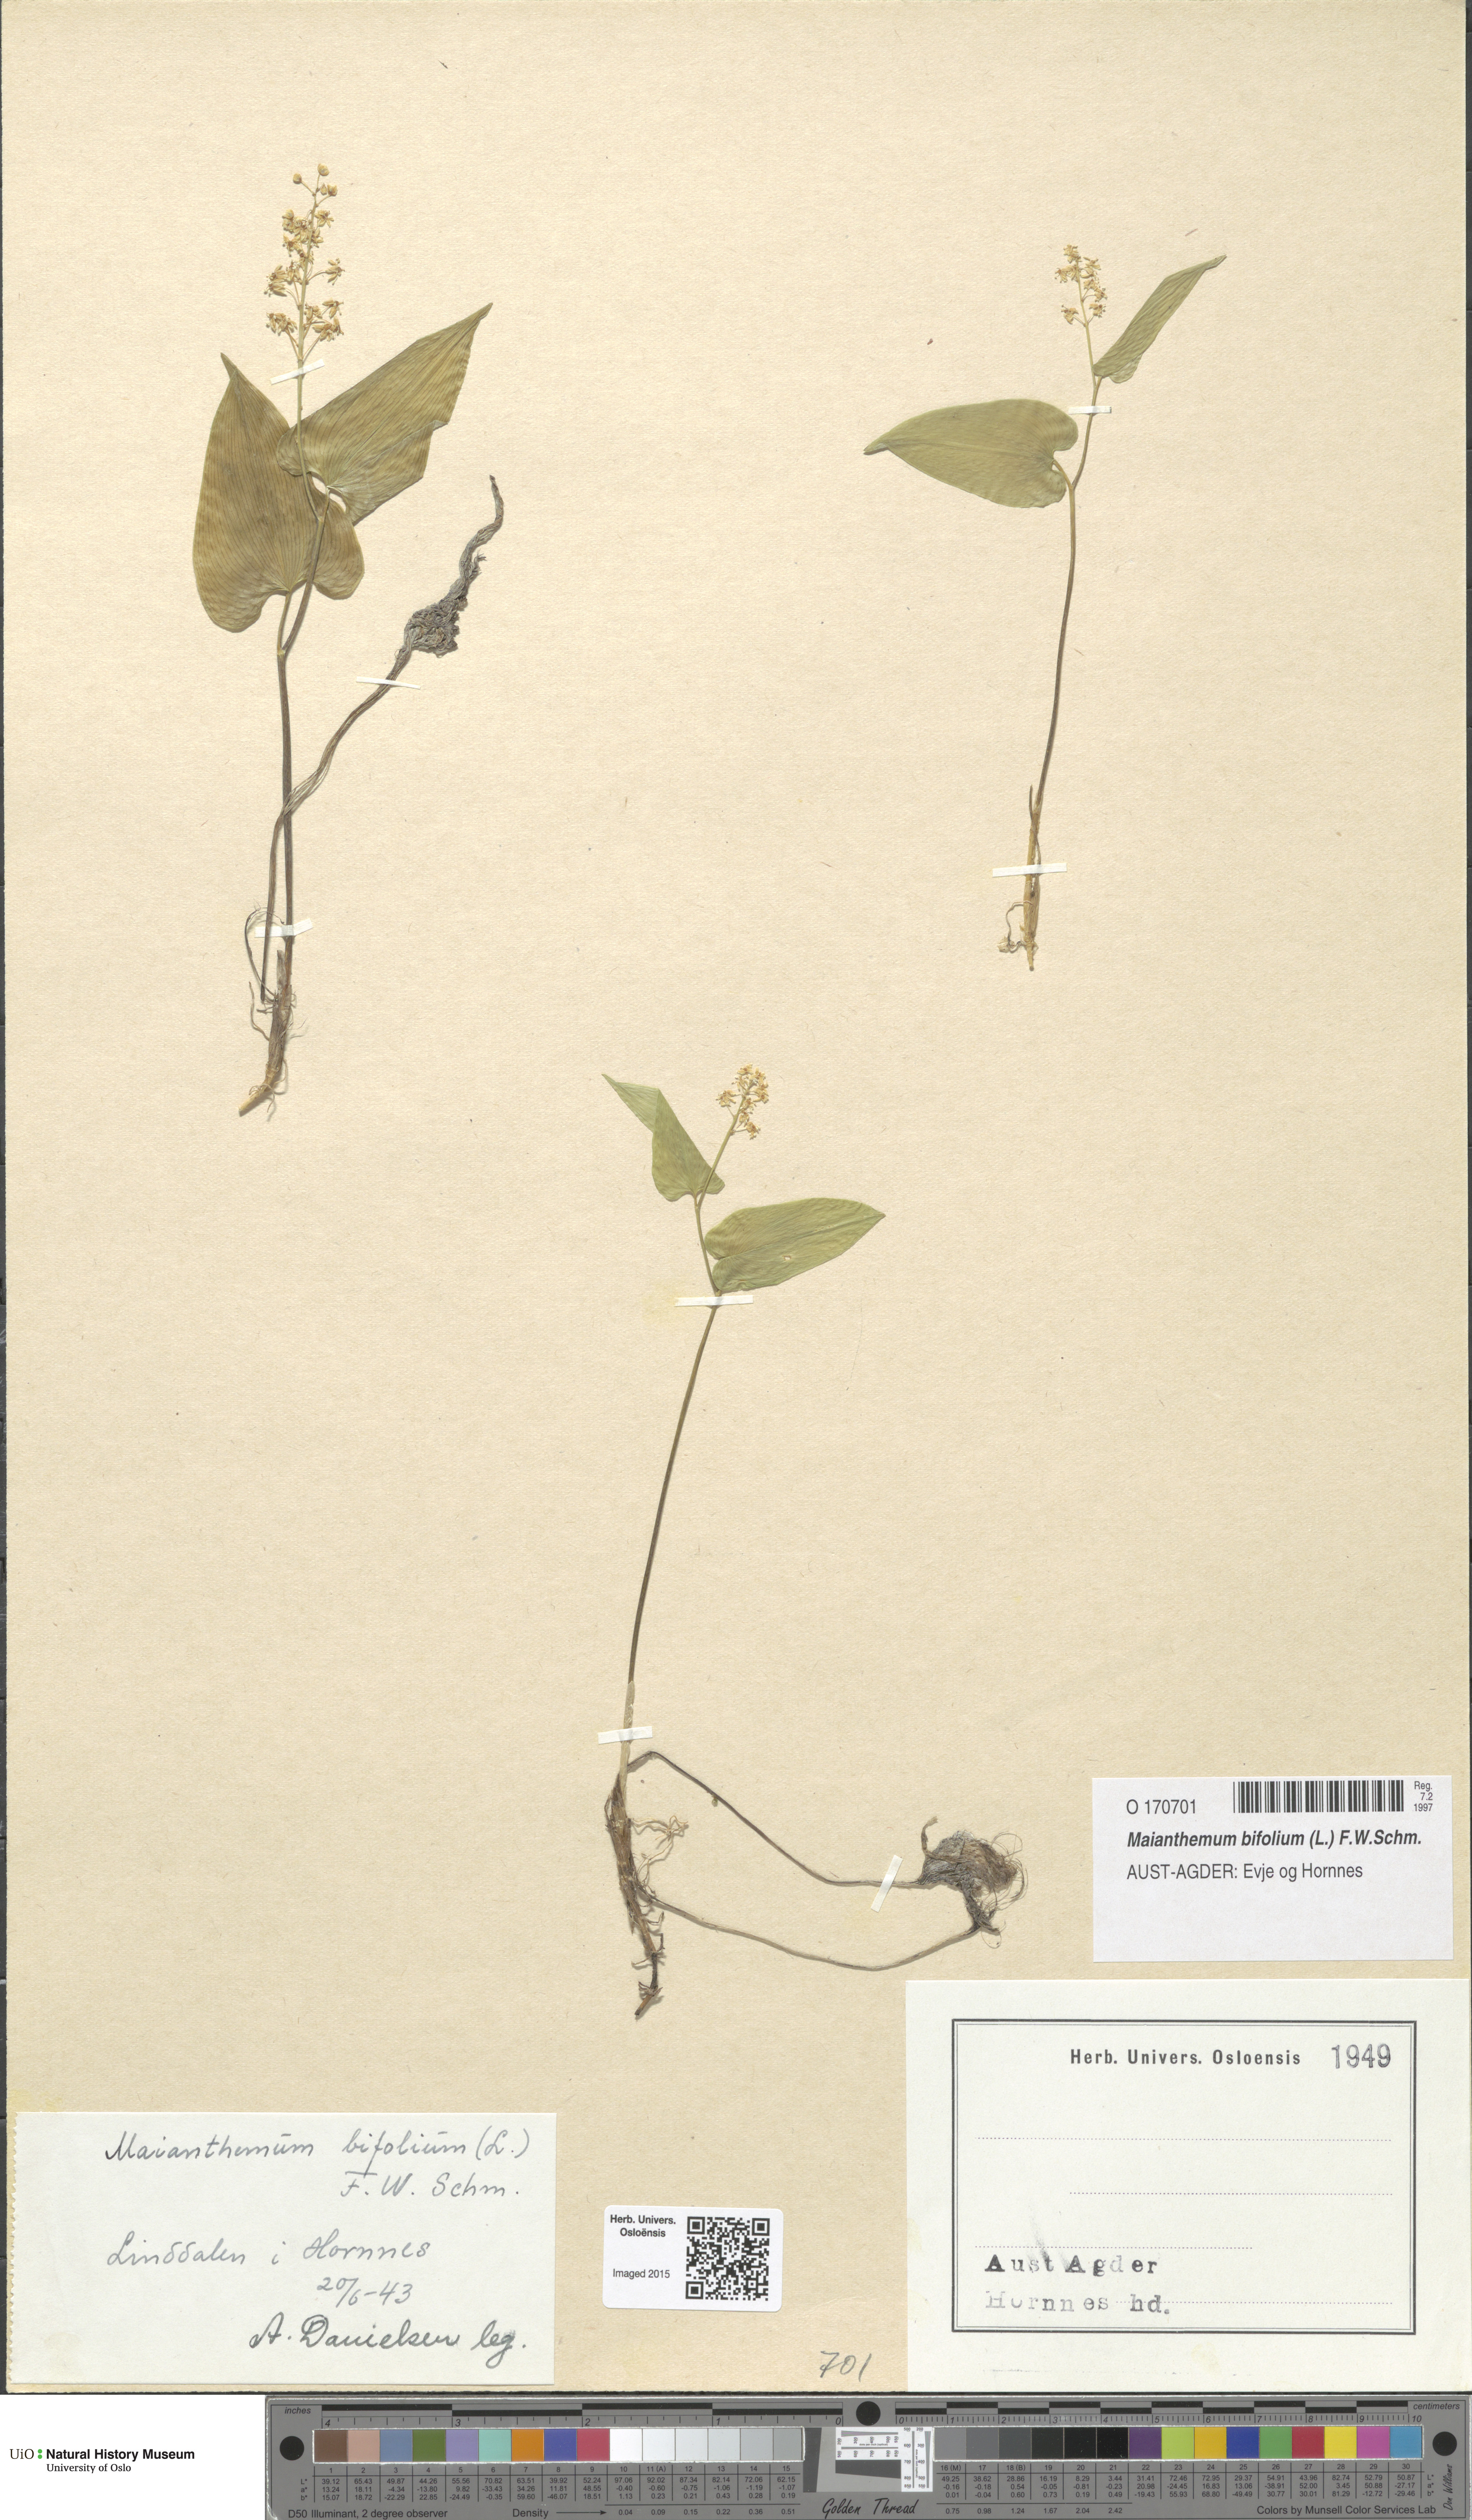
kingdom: Plantae
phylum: Tracheophyta
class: Liliopsida
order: Asparagales
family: Asparagaceae
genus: Maianthemum
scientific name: Maianthemum bifolium
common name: May lily
